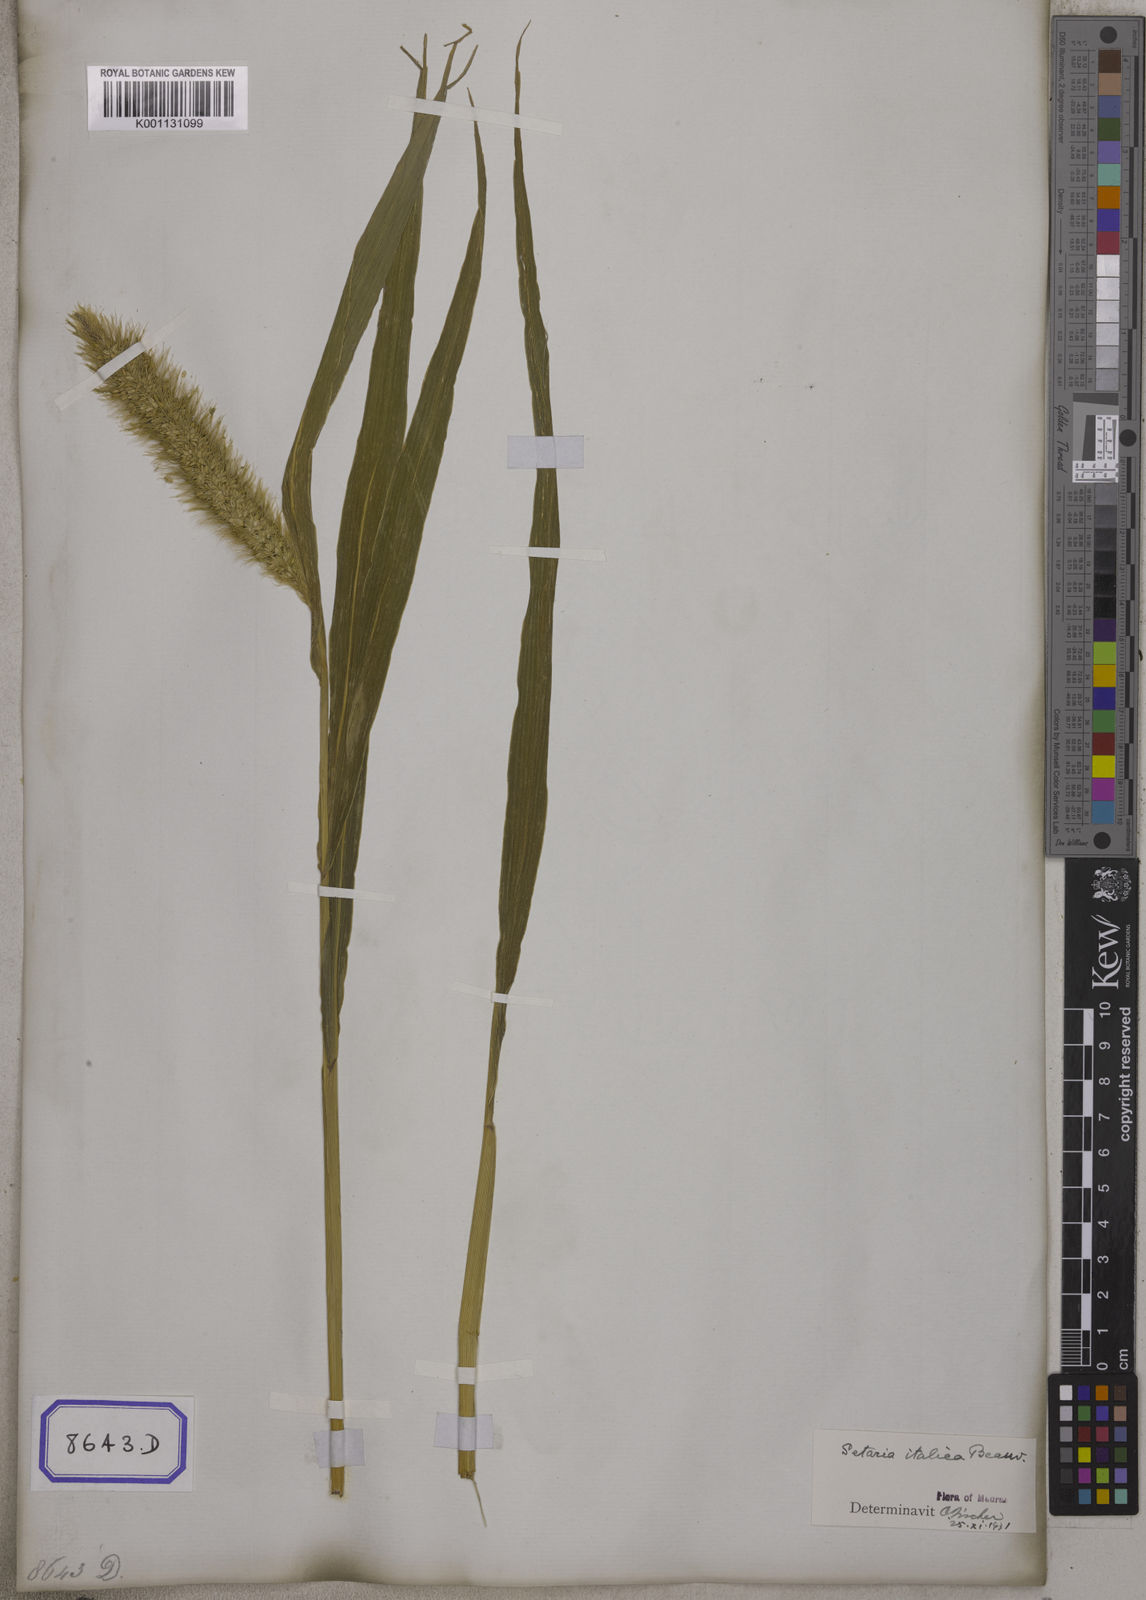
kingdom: Plantae
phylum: Tracheophyta
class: Liliopsida
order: Poales
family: Poaceae
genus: Setaria
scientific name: Setaria italica
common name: Foxtail bristle-grass
